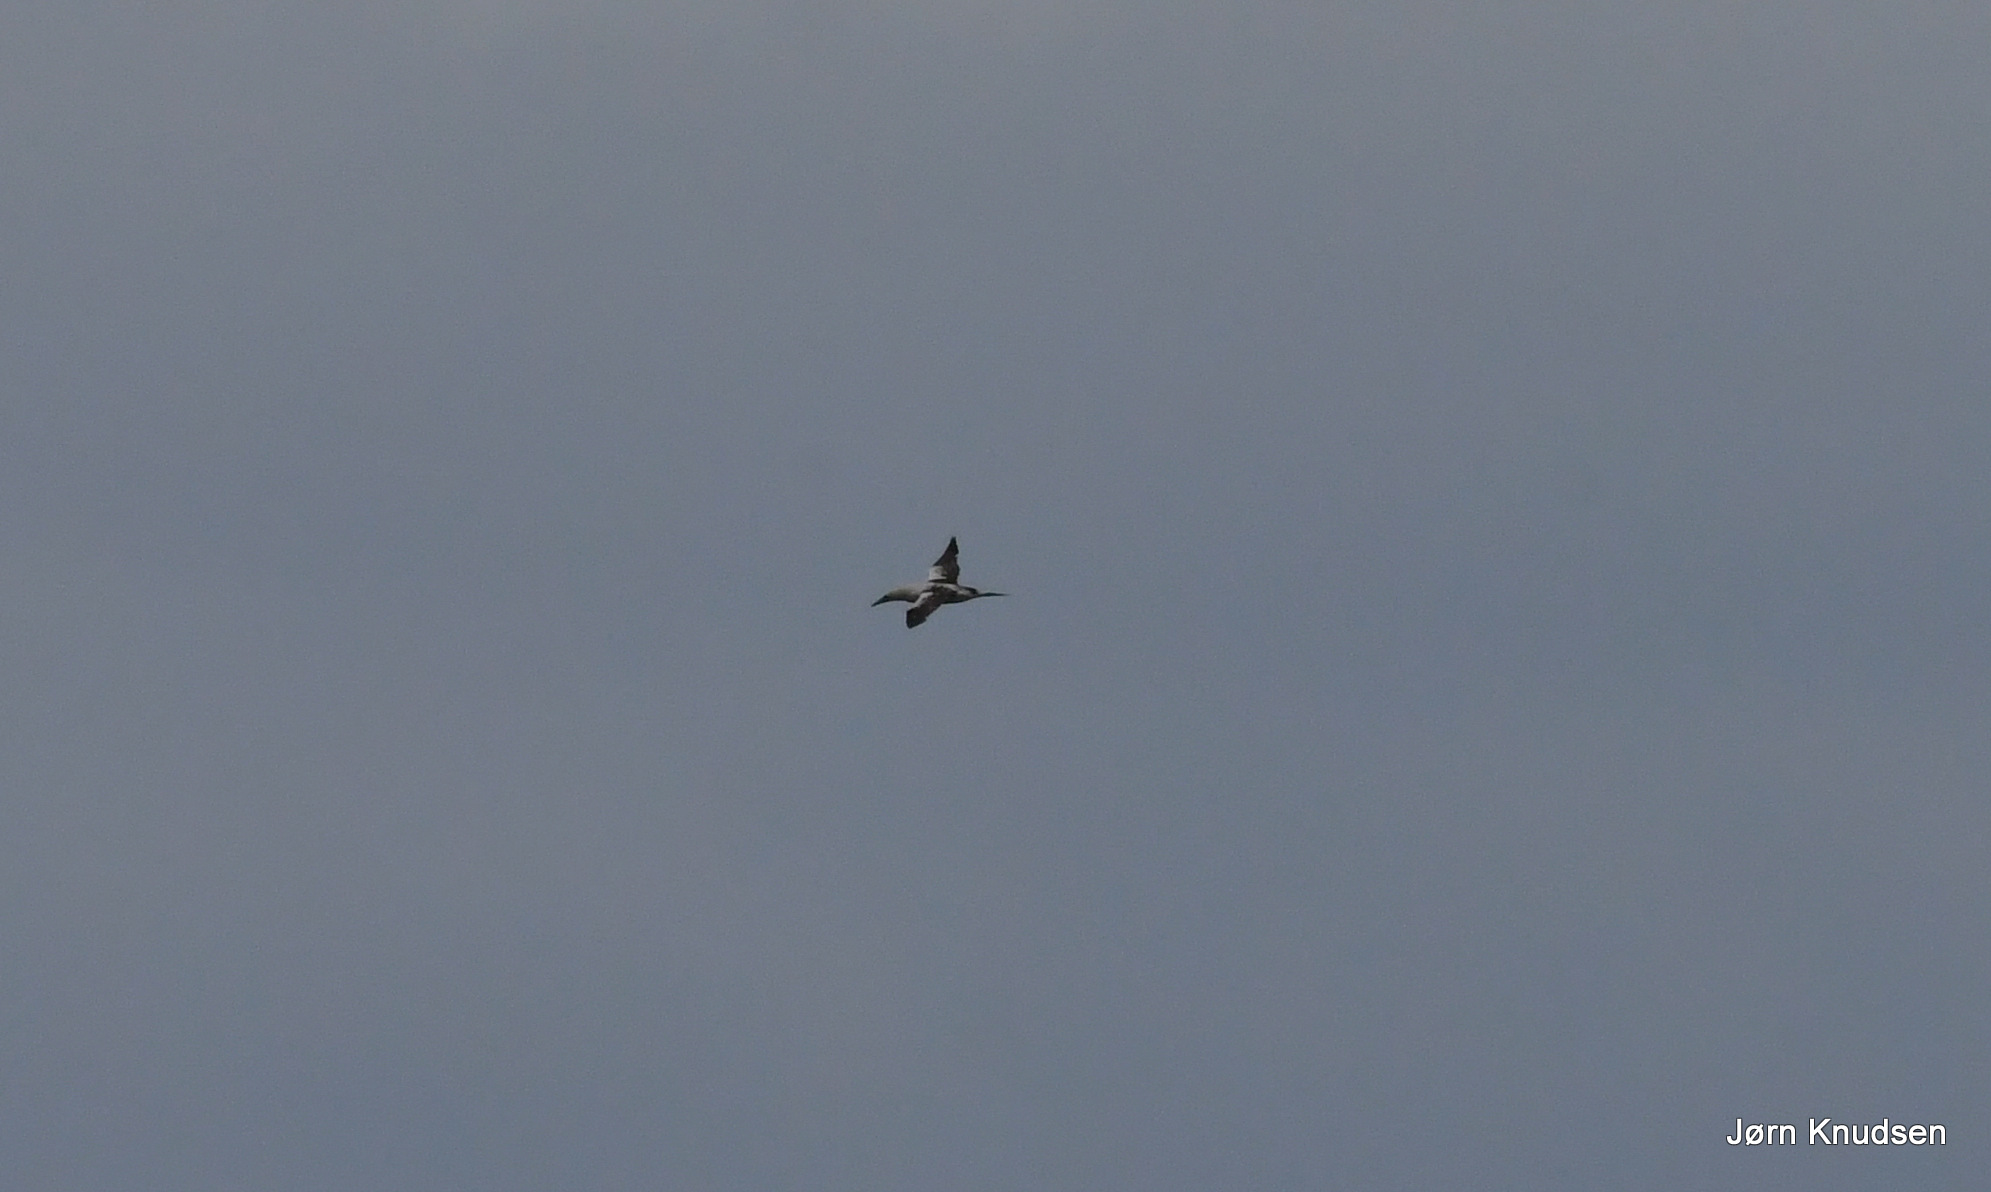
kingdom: Animalia
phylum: Chordata
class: Aves
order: Suliformes
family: Sulidae
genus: Morus
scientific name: Morus bassanus
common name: Sule
